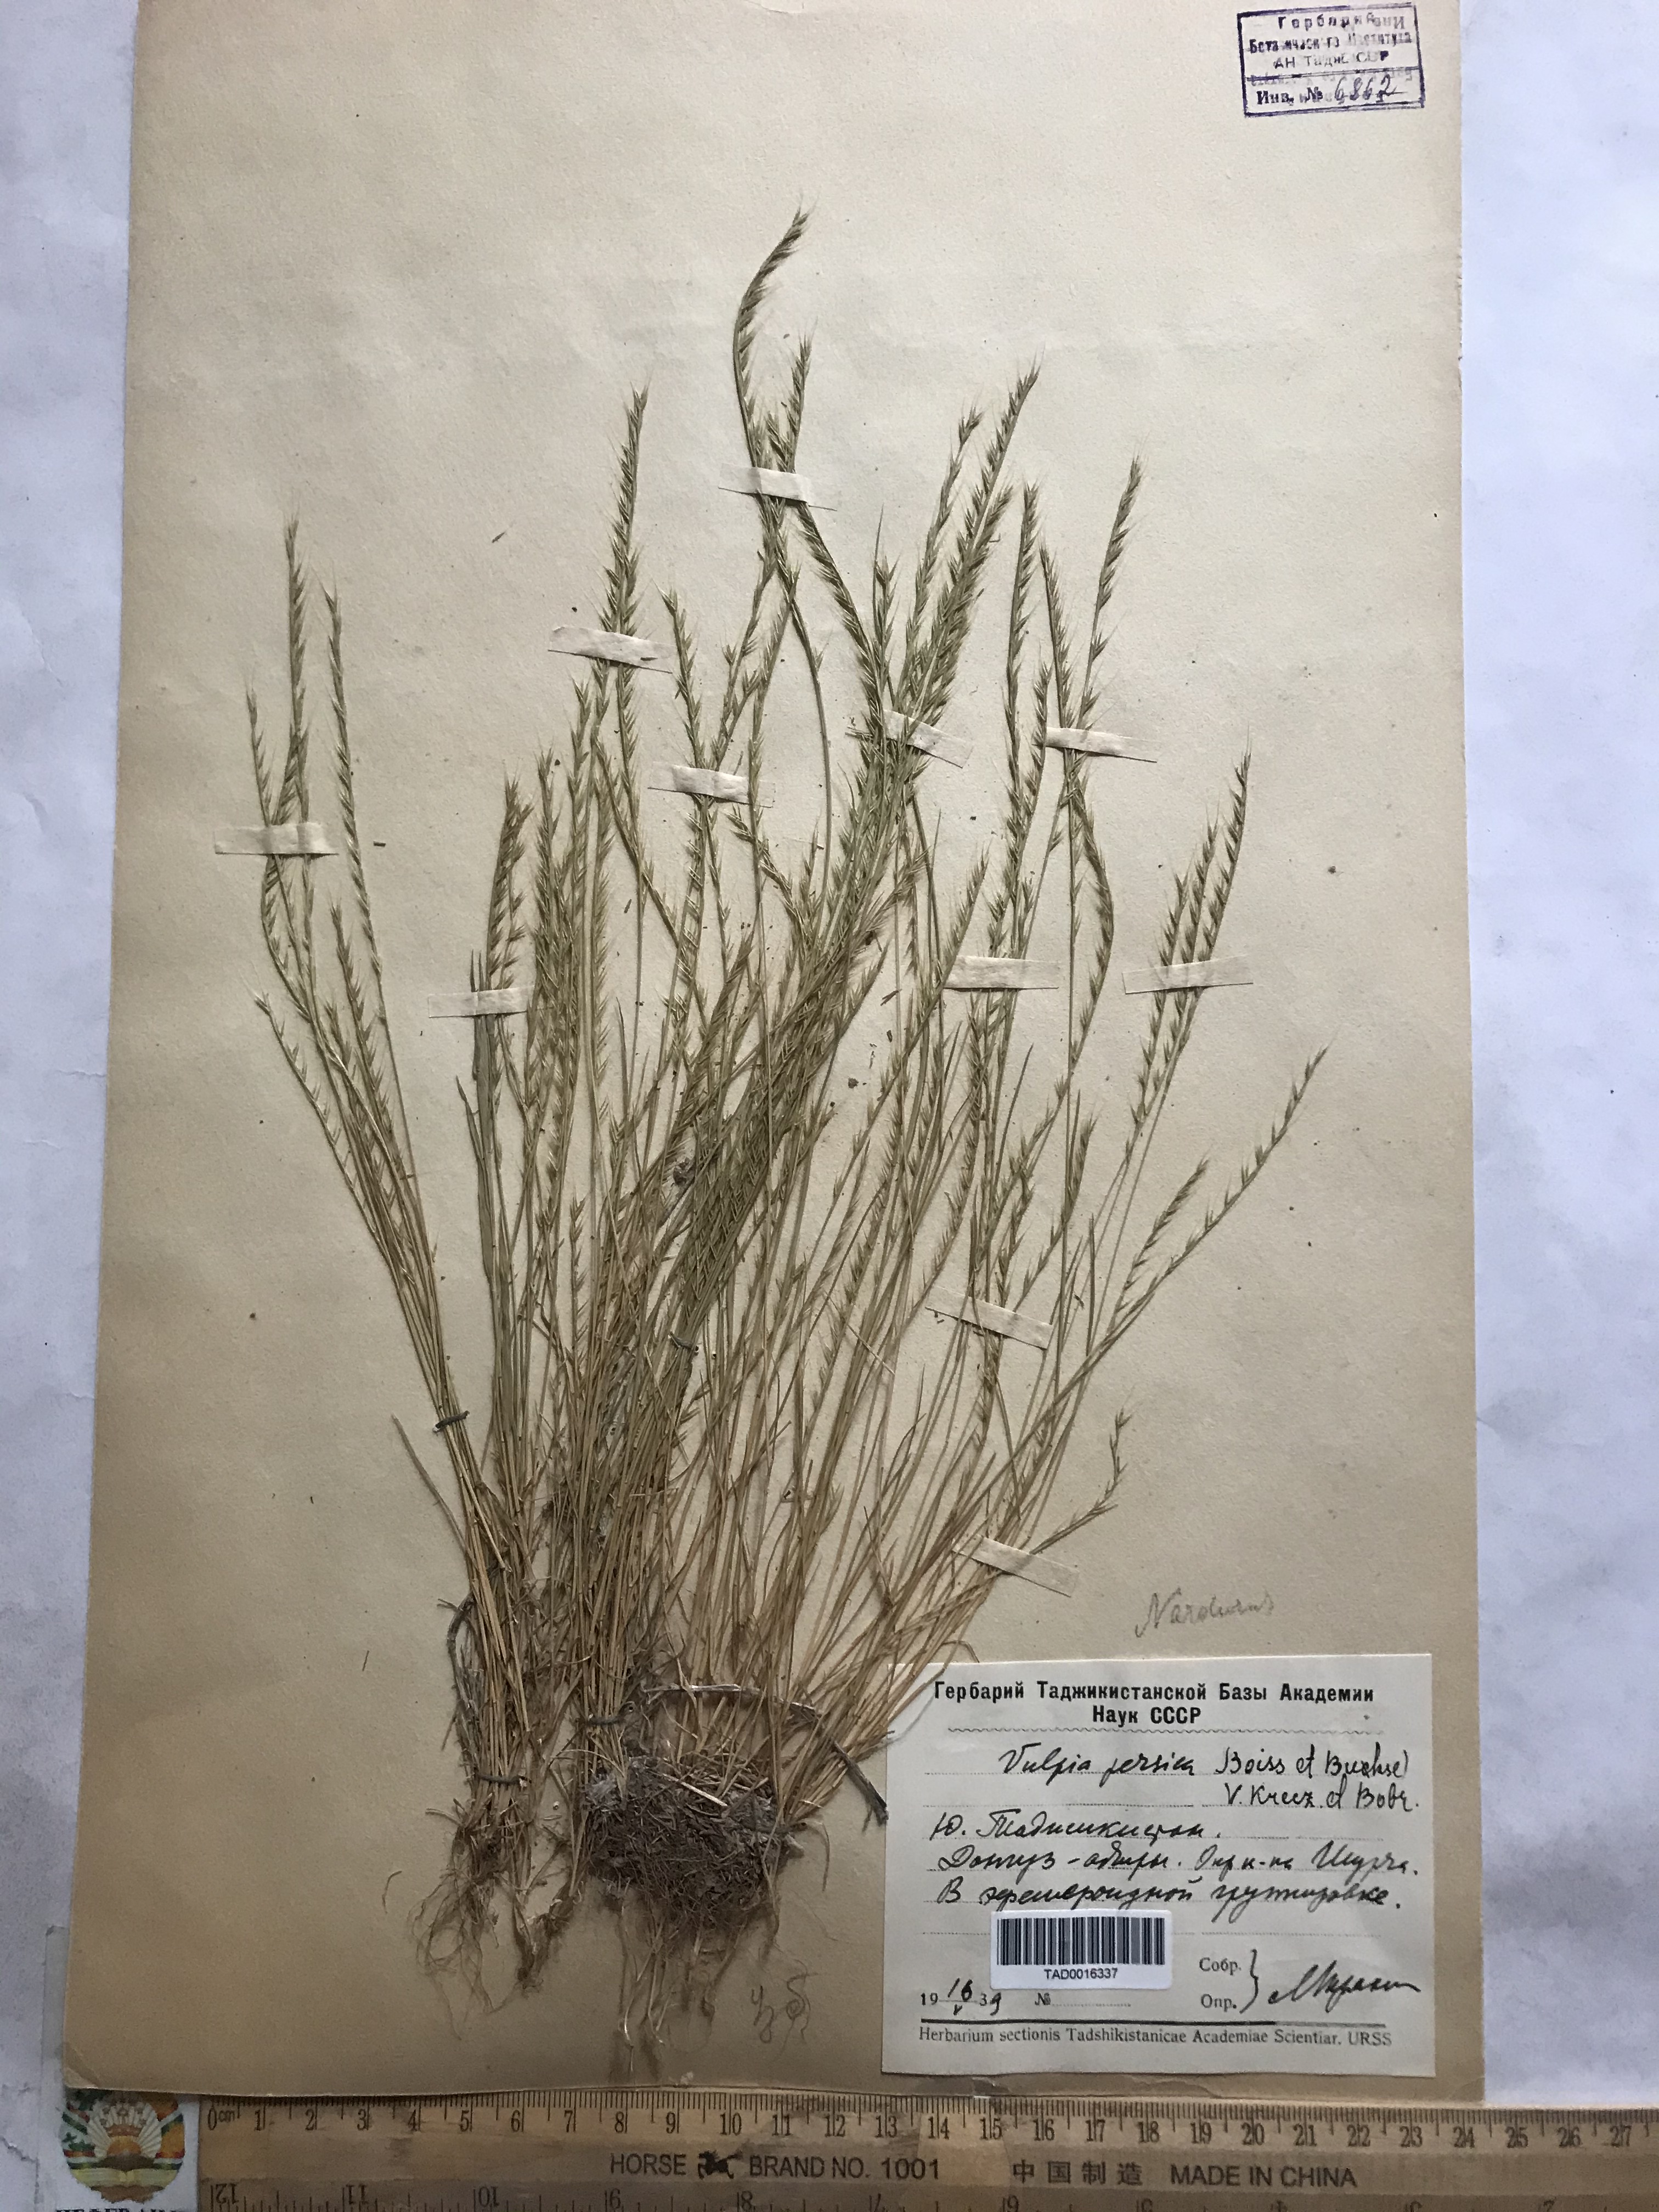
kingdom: Plantae
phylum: Tracheophyta
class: Liliopsida
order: Poales
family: Poaceae
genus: Festuca
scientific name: Festuca Vulpia persica
